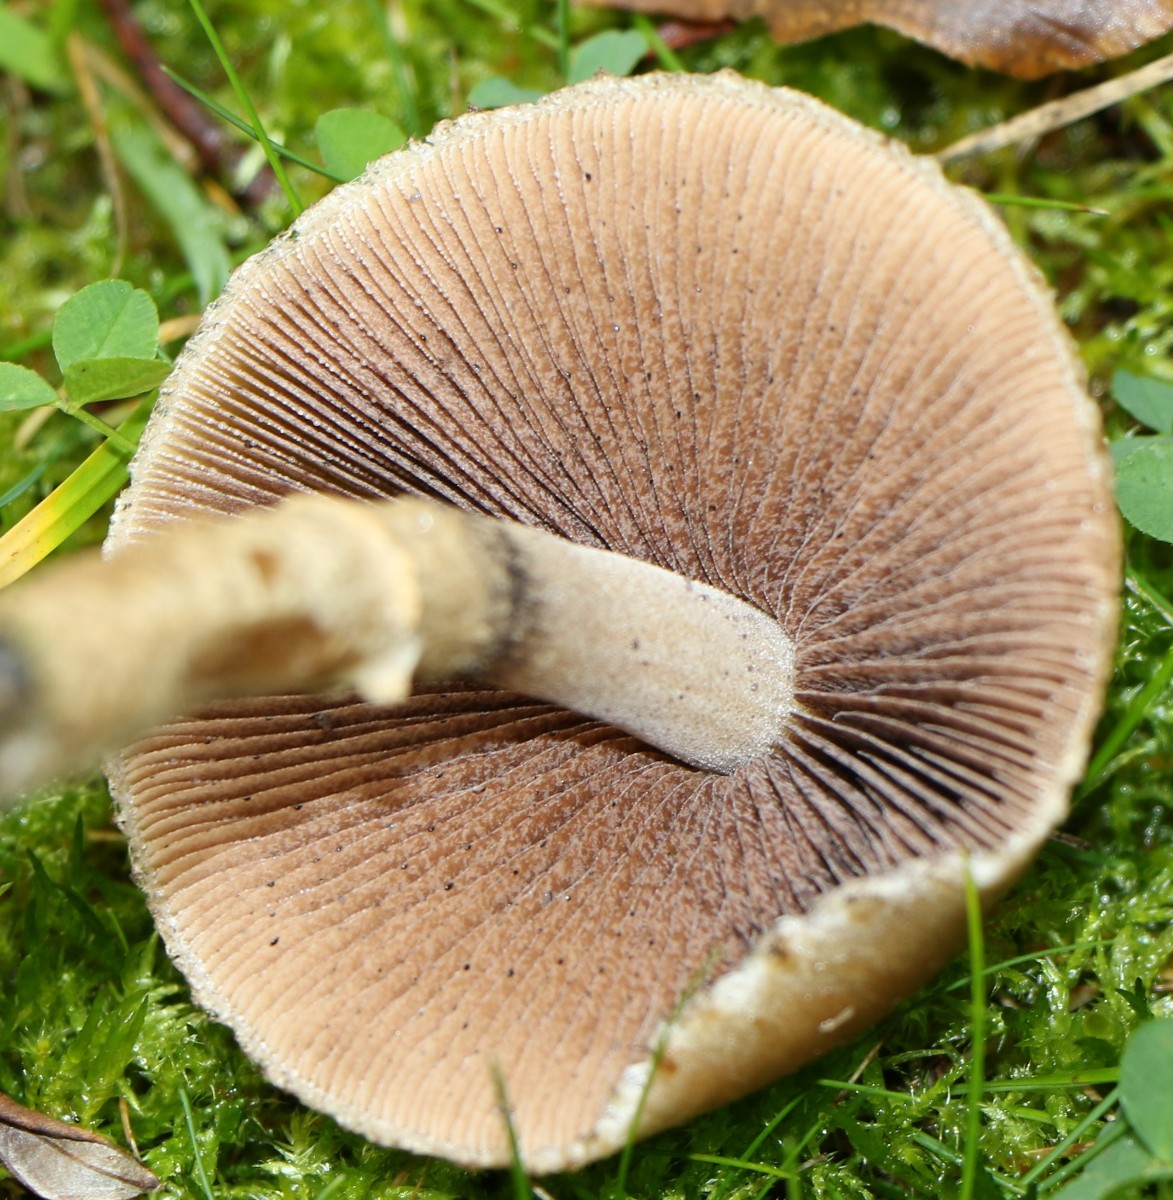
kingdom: Fungi
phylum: Basidiomycota
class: Agaricomycetes
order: Agaricales
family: Psathyrellaceae
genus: Lacrymaria
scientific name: Lacrymaria lacrymabunda
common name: grædende mørkhat
